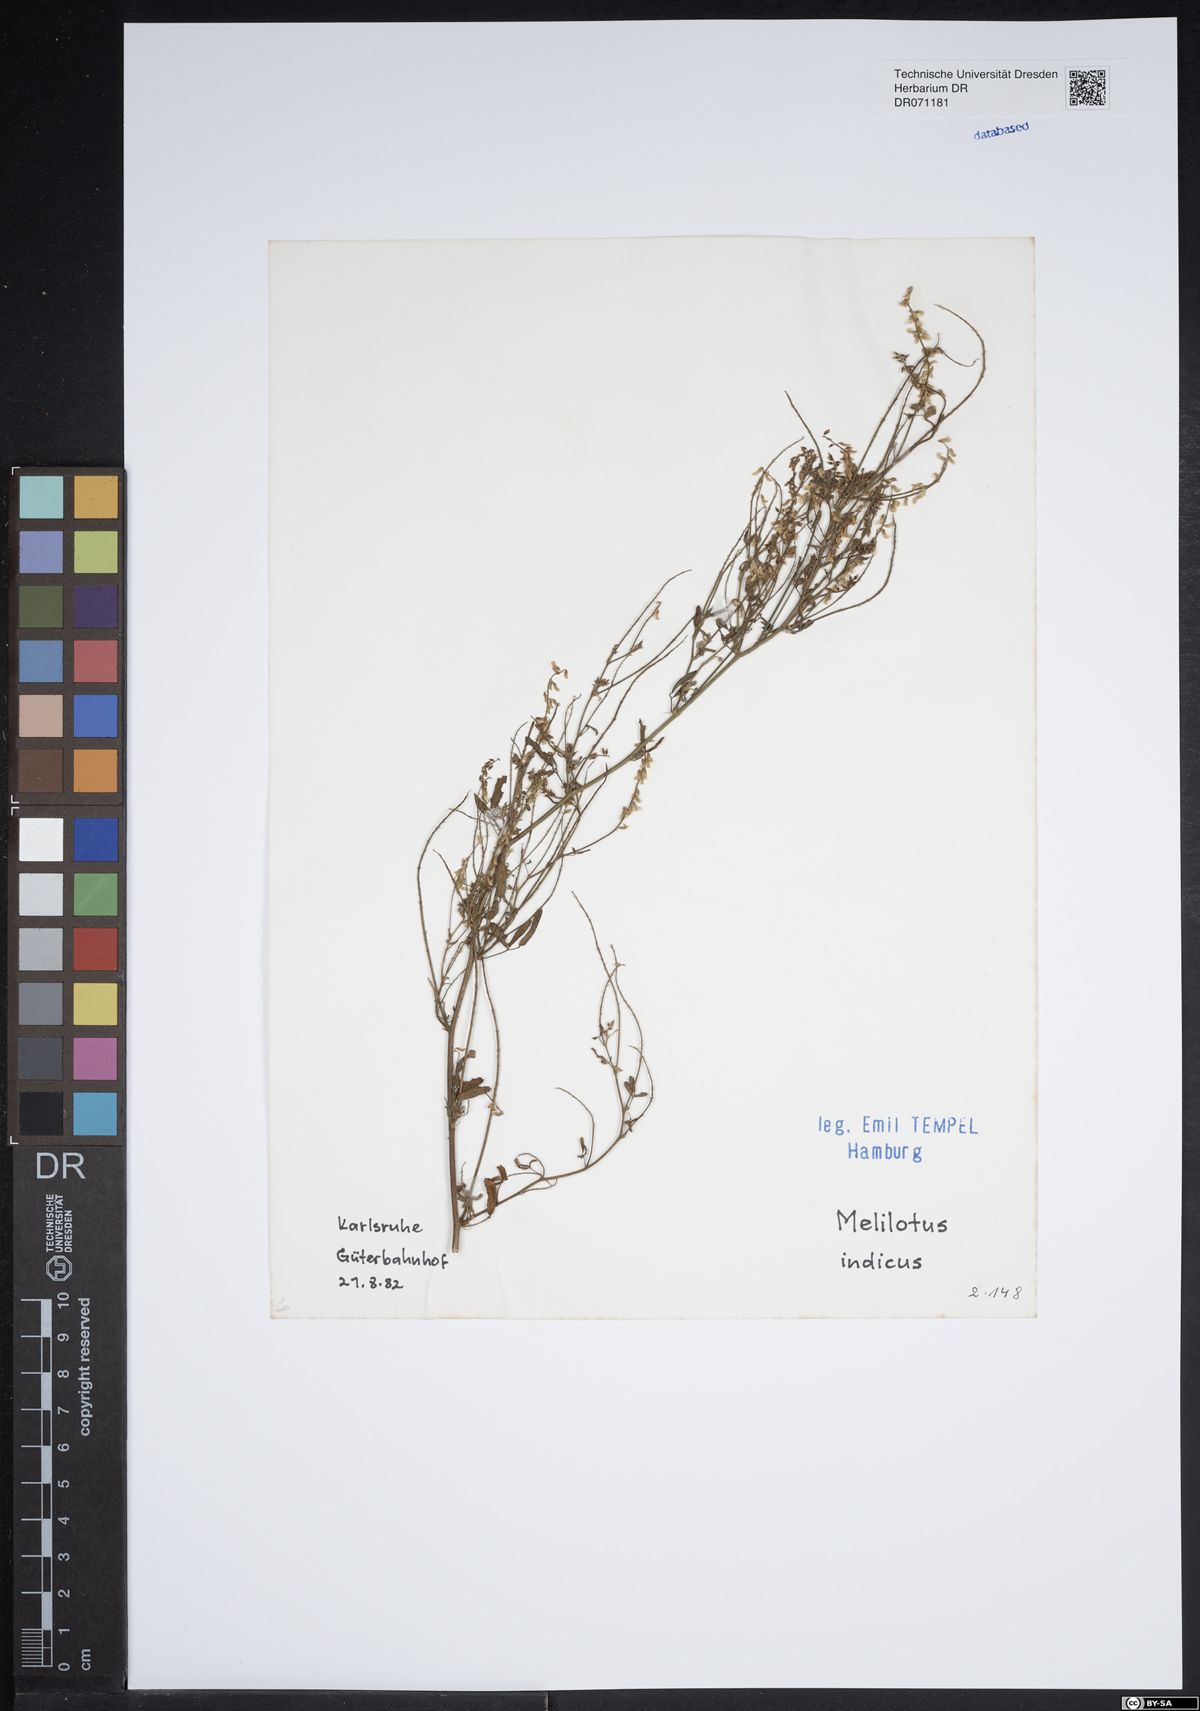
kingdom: Plantae
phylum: Tracheophyta
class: Magnoliopsida
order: Fabales
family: Fabaceae
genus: Melilotus
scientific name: Melilotus indicus
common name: Small melilot
